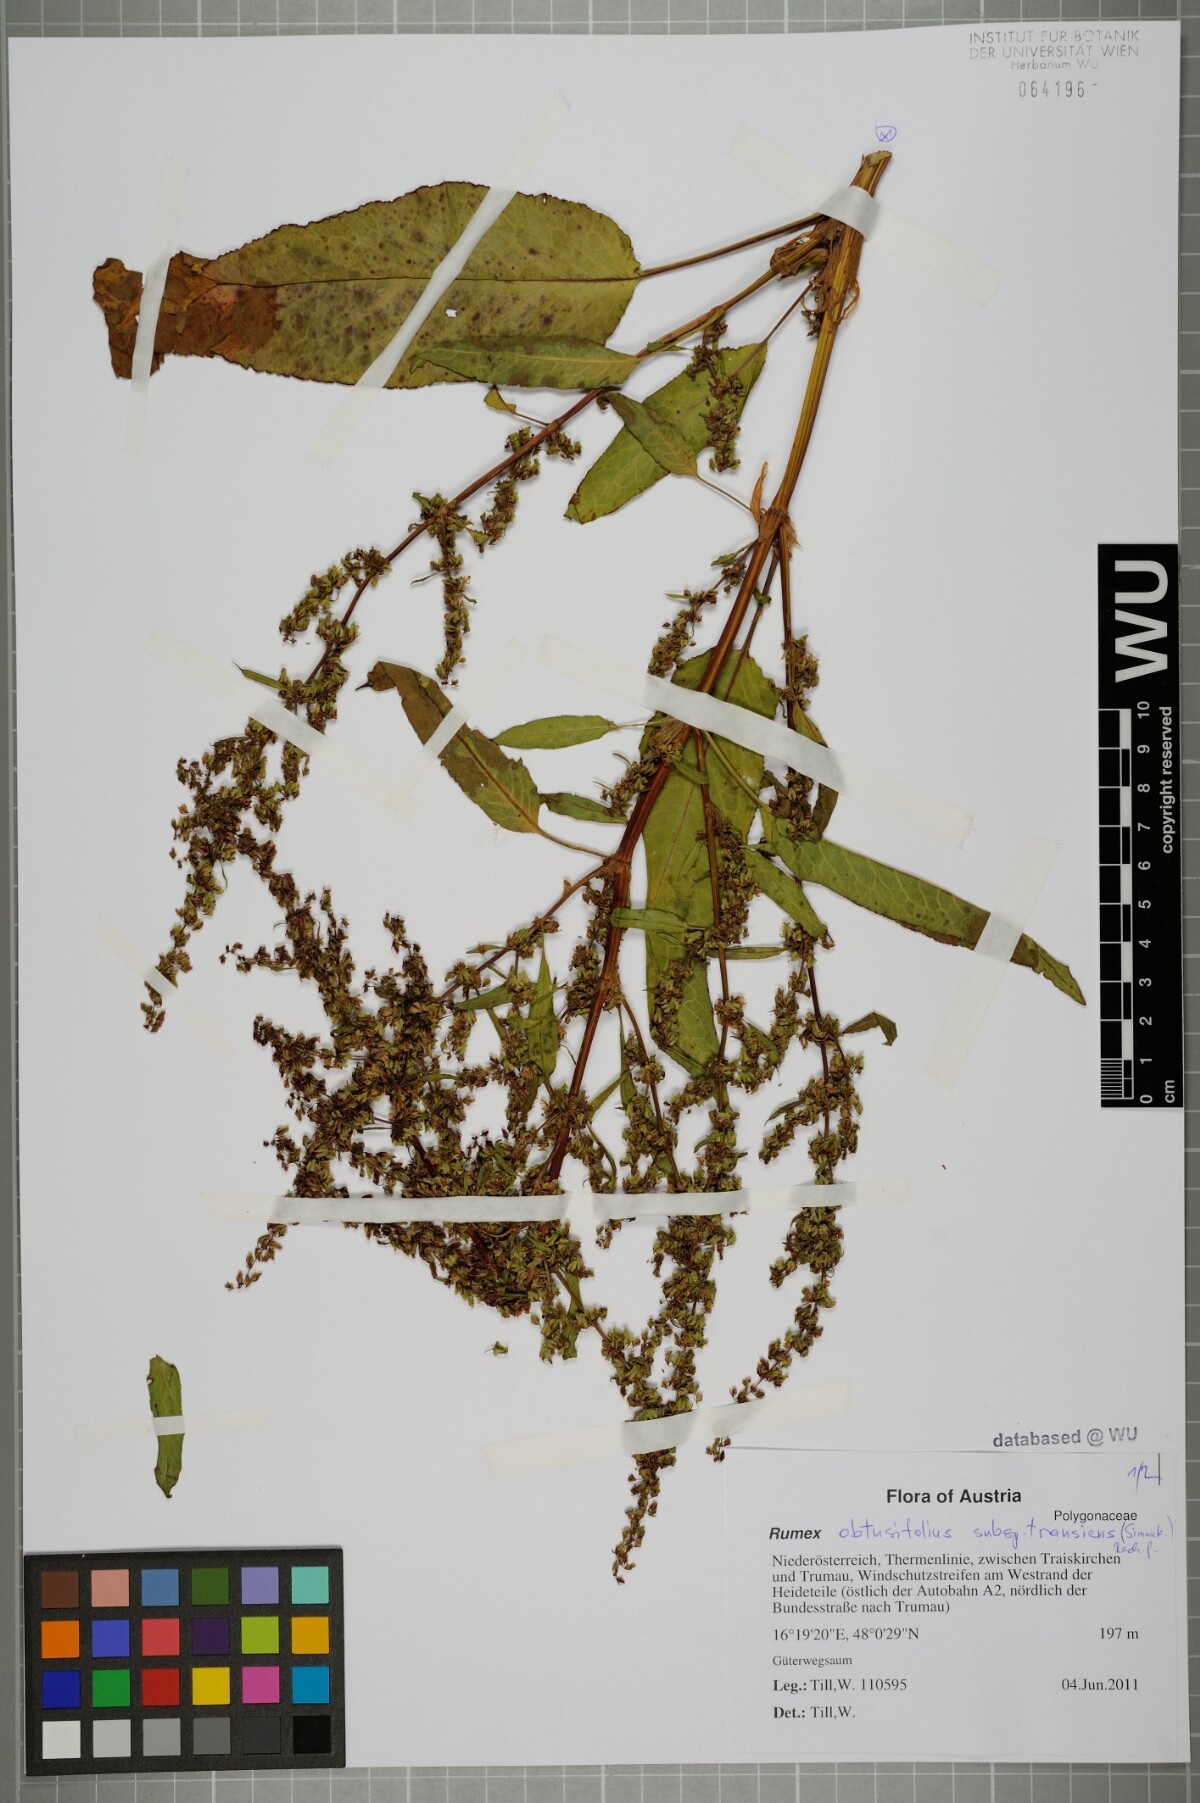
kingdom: Plantae
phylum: Tracheophyta
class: Magnoliopsida
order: Caryophyllales
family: Polygonaceae
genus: Rumex
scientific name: Rumex obtusifolius
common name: Bitter dock
